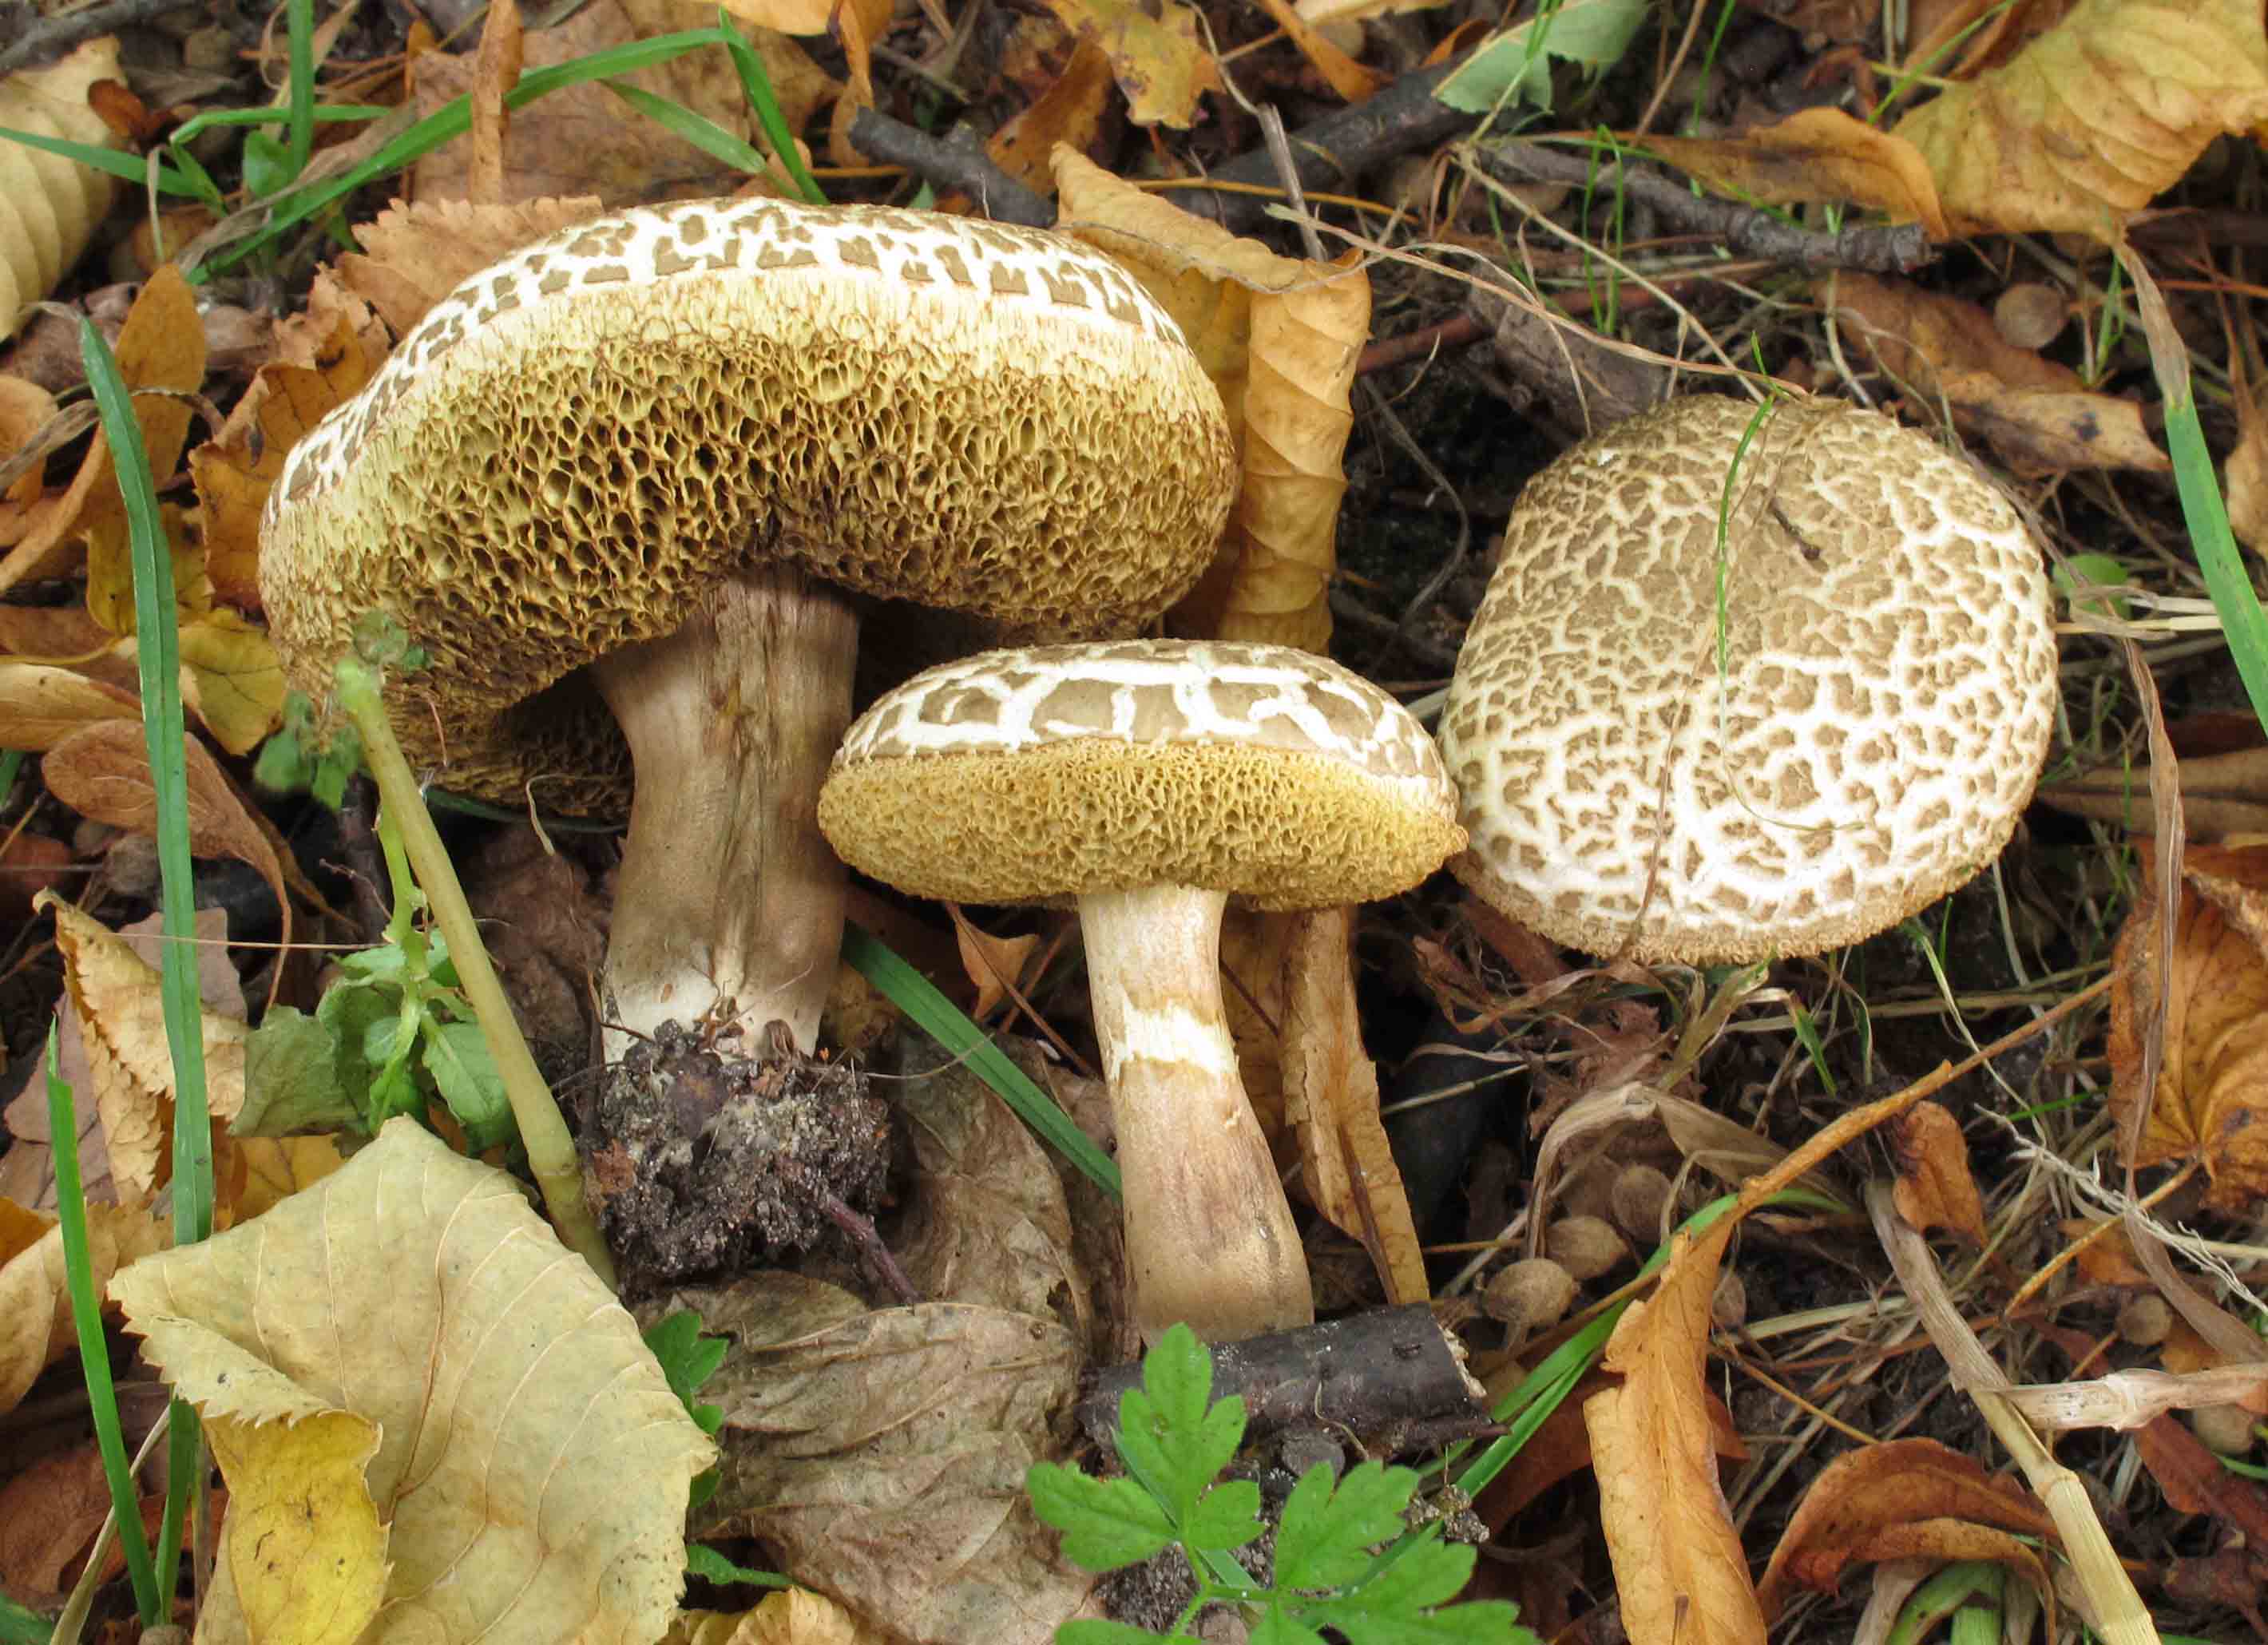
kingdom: Fungi
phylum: Basidiomycota
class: Agaricomycetes
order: Boletales
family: Boletaceae
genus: Xerocomellus
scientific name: Xerocomellus porosporus
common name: hvidsprukken rørhat
